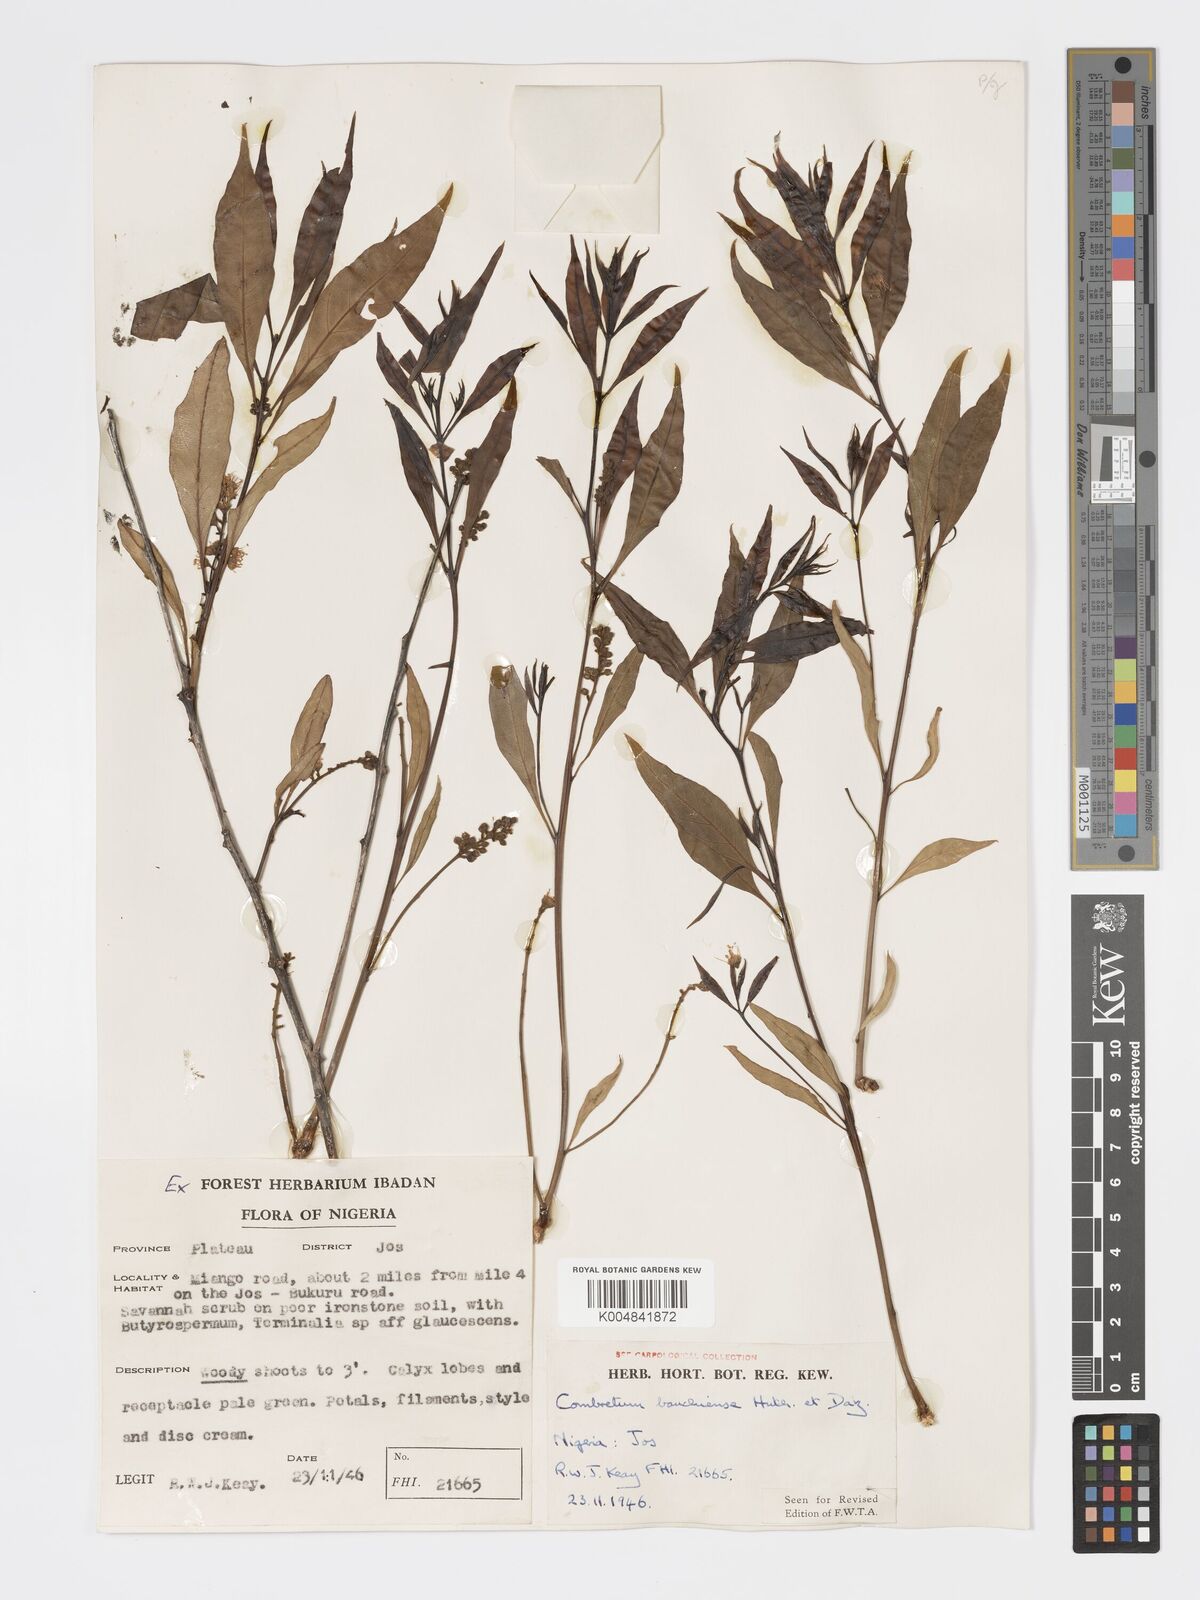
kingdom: Plantae
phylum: Tracheophyta
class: Magnoliopsida
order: Myrtales
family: Combretaceae
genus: Combretum
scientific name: Combretum bauchiense
